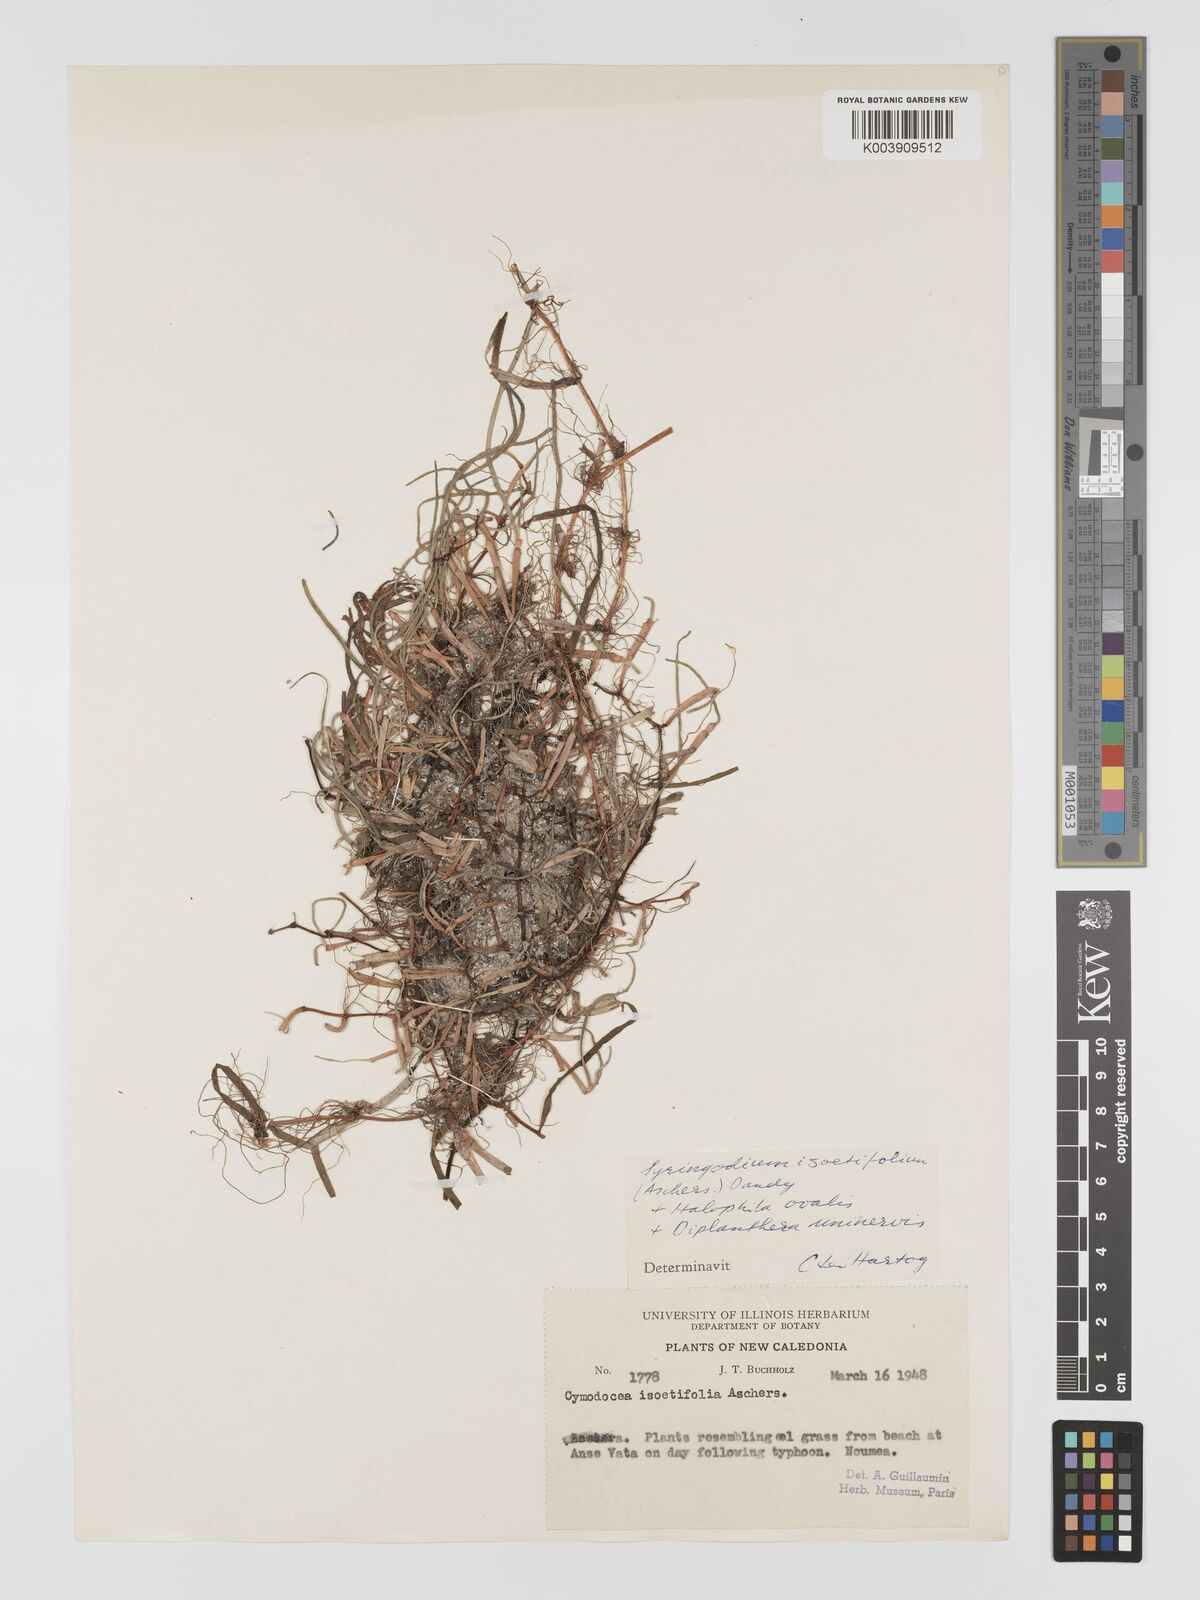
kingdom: Plantae
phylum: Tracheophyta
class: Liliopsida
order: Alismatales
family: Cymodoceaceae
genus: Syringodium
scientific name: Syringodium isoetifolium
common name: Species code: si
